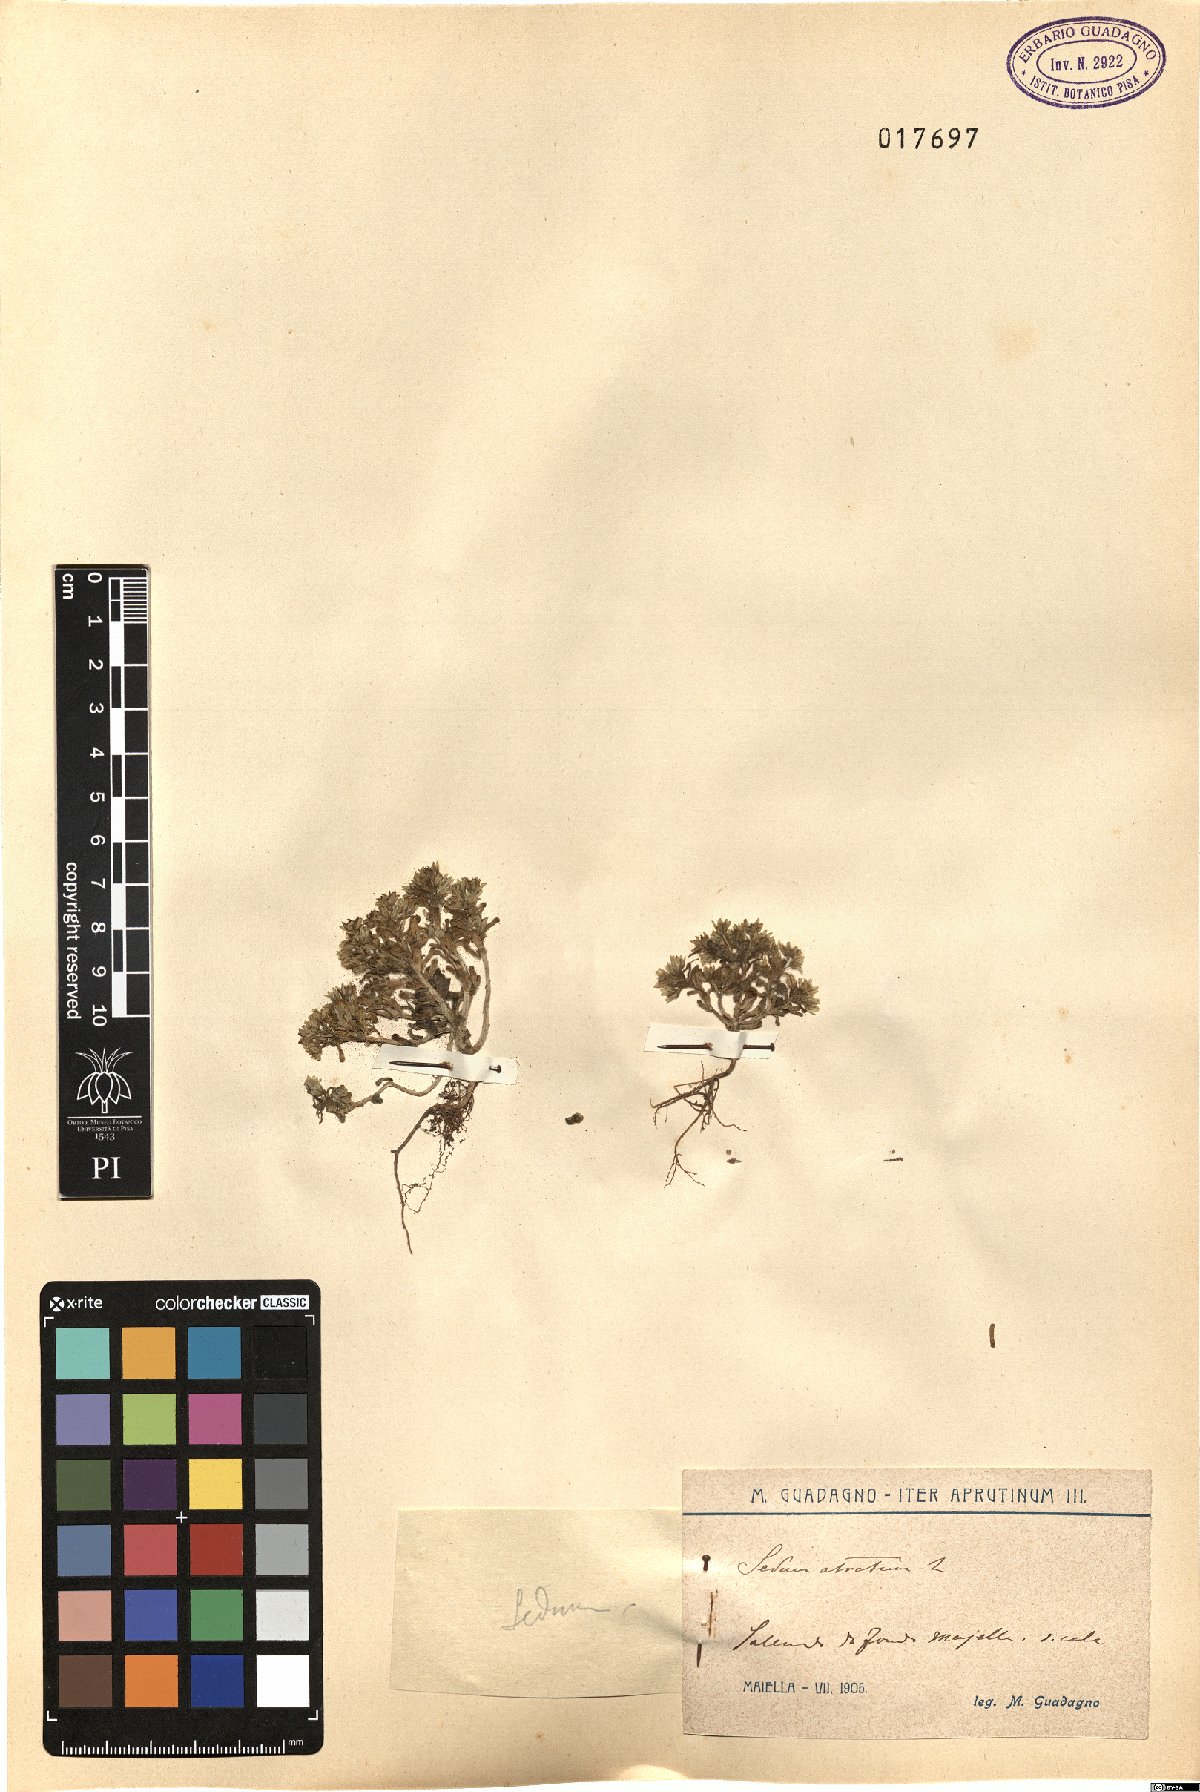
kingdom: Plantae
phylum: Tracheophyta
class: Magnoliopsida
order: Saxifragales
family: Crassulaceae
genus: Sedum
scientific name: Sedum atratum
